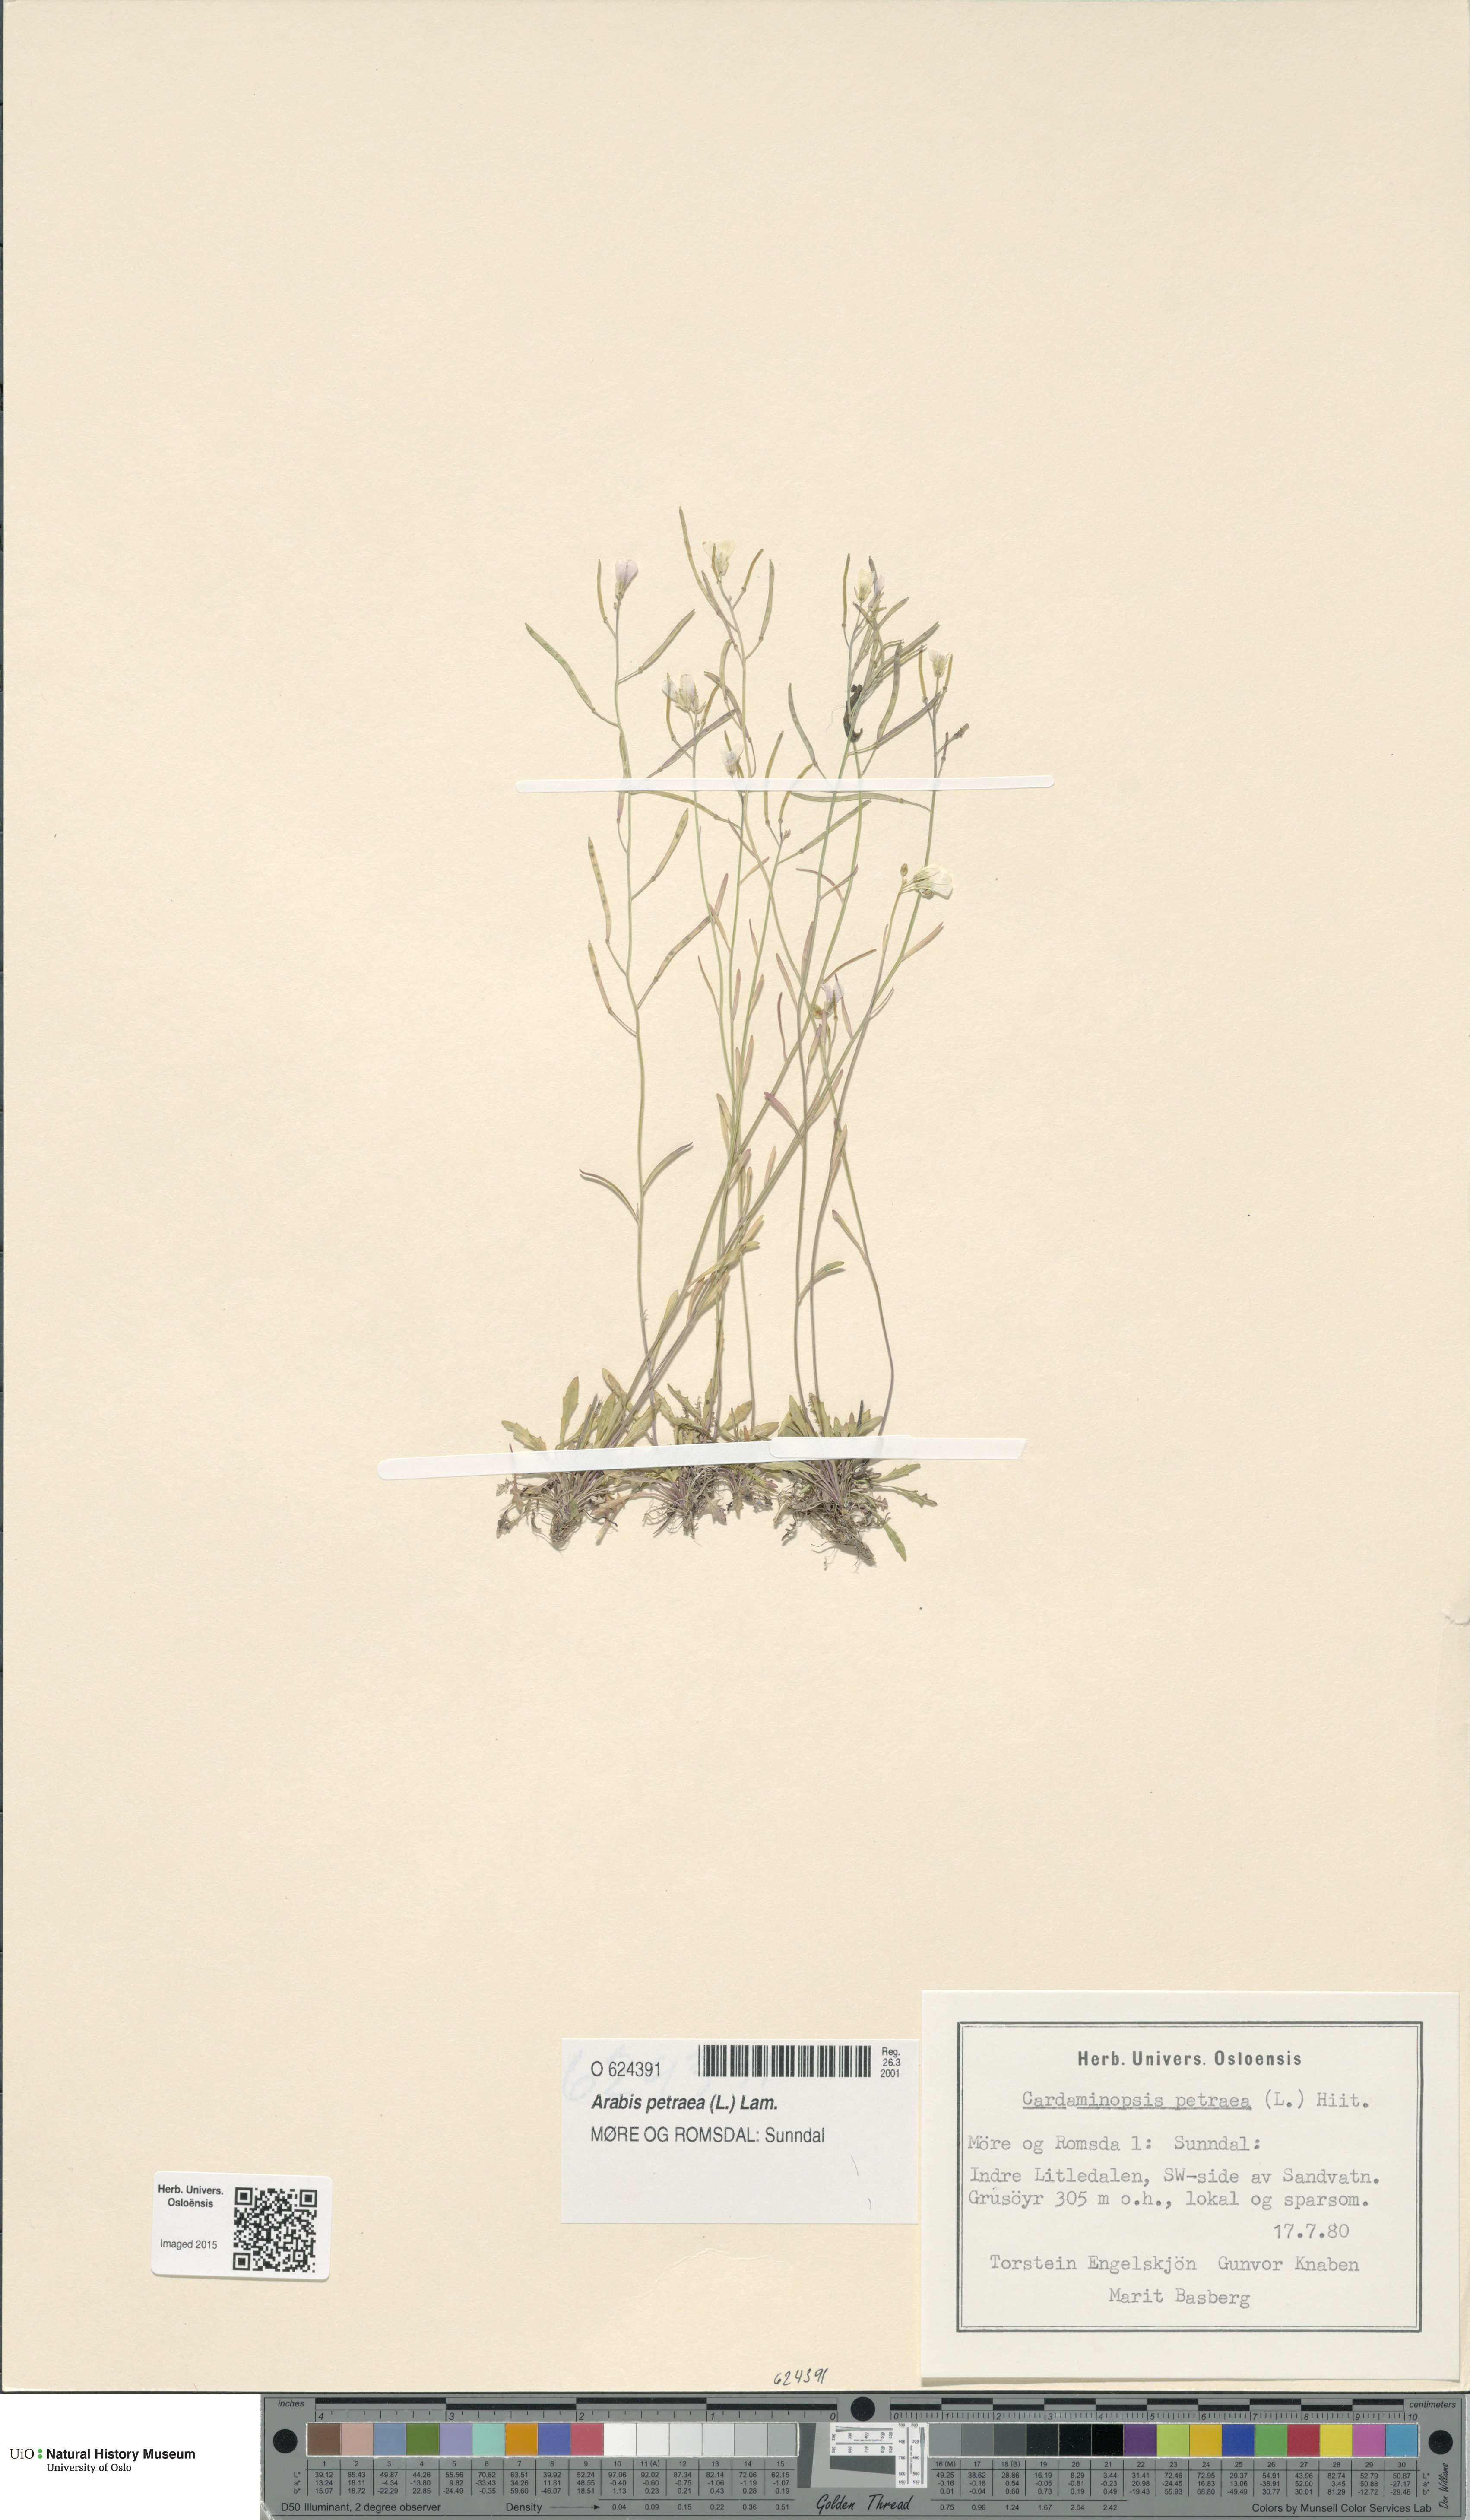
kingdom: Plantae
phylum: Tracheophyta
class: Magnoliopsida
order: Brassicales
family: Brassicaceae
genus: Arabidopsis
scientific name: Arabidopsis petraea
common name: Northern rock-cress
